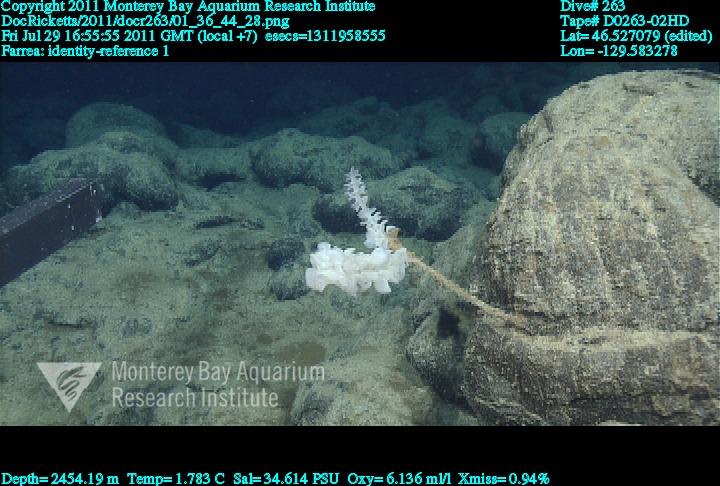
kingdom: Animalia
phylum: Porifera
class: Hexactinellida
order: Sceptrulophora
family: Farreidae
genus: Farrea
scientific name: Farrea
